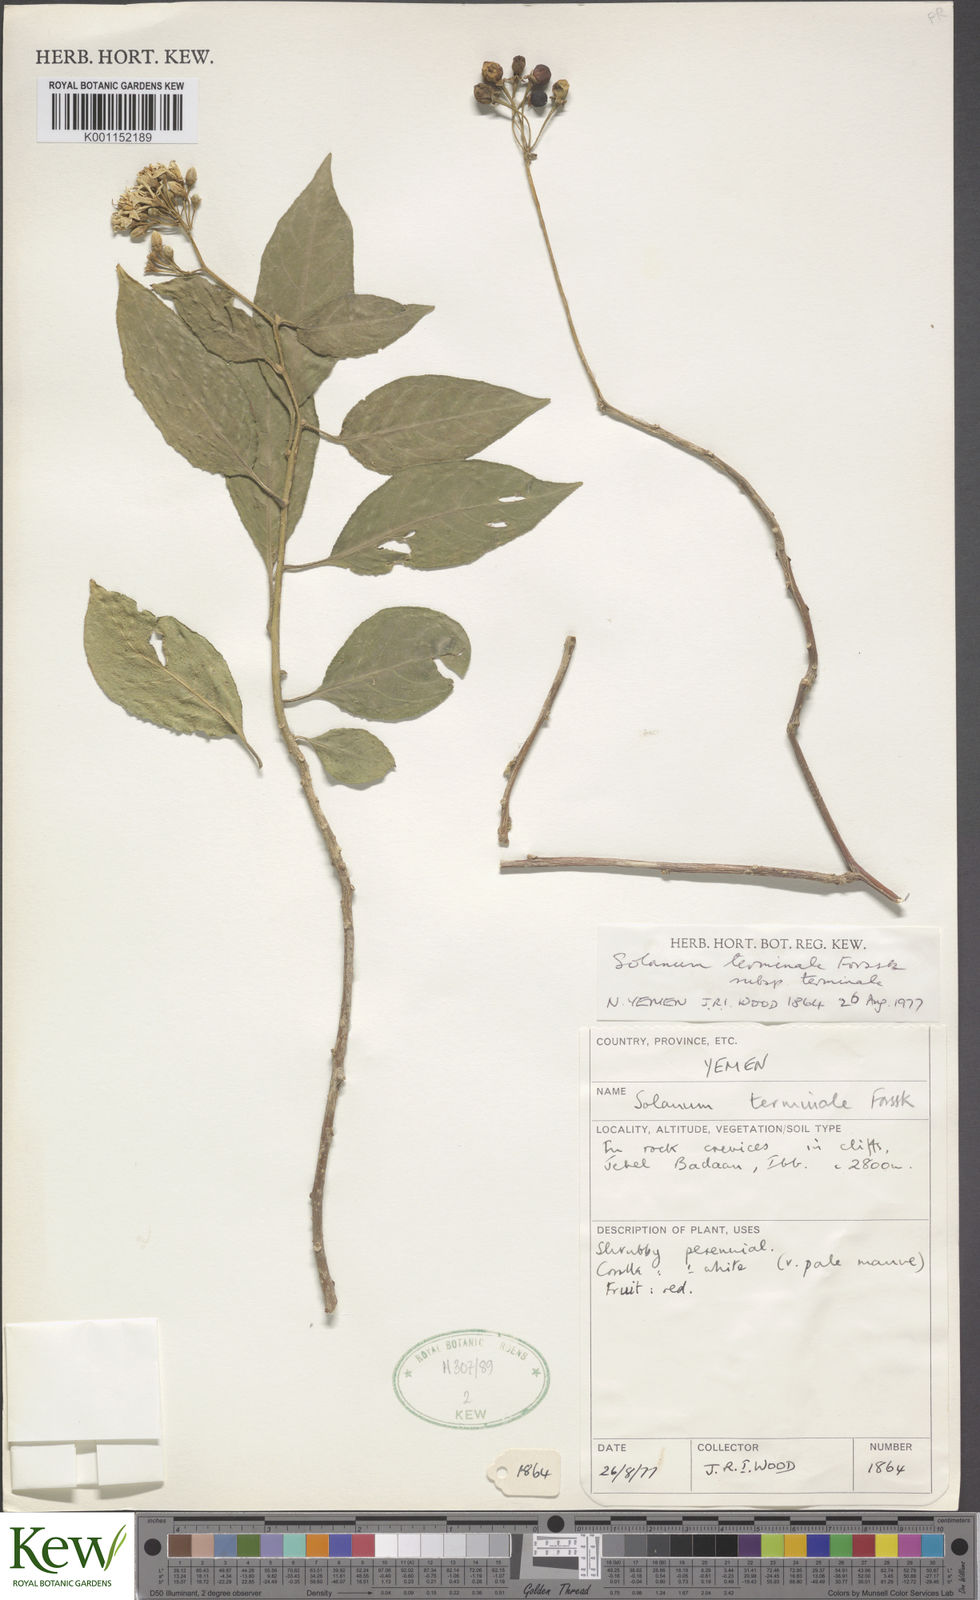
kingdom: Plantae
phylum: Tracheophyta
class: Magnoliopsida
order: Solanales
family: Solanaceae
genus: Solanum
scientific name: Solanum terminale
